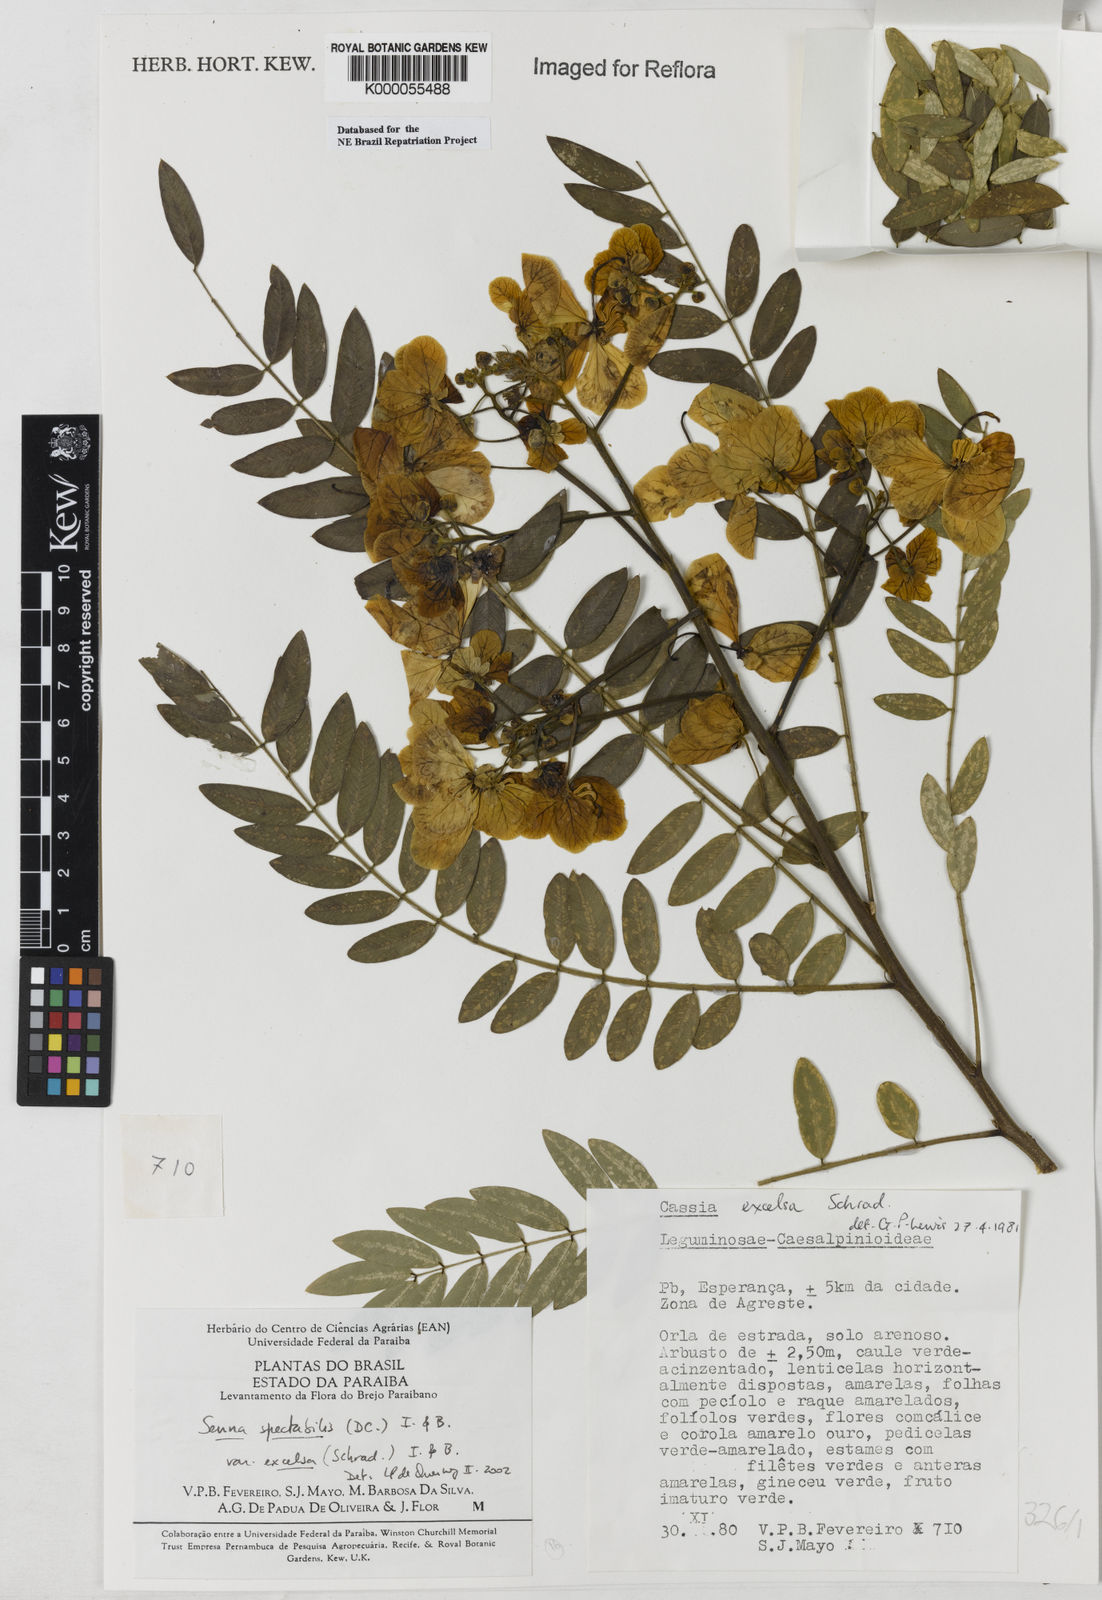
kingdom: Plantae
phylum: Tracheophyta
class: Magnoliopsida
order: Fabales
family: Fabaceae
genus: Senna
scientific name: Senna spectabilis
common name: Casia amarilla
